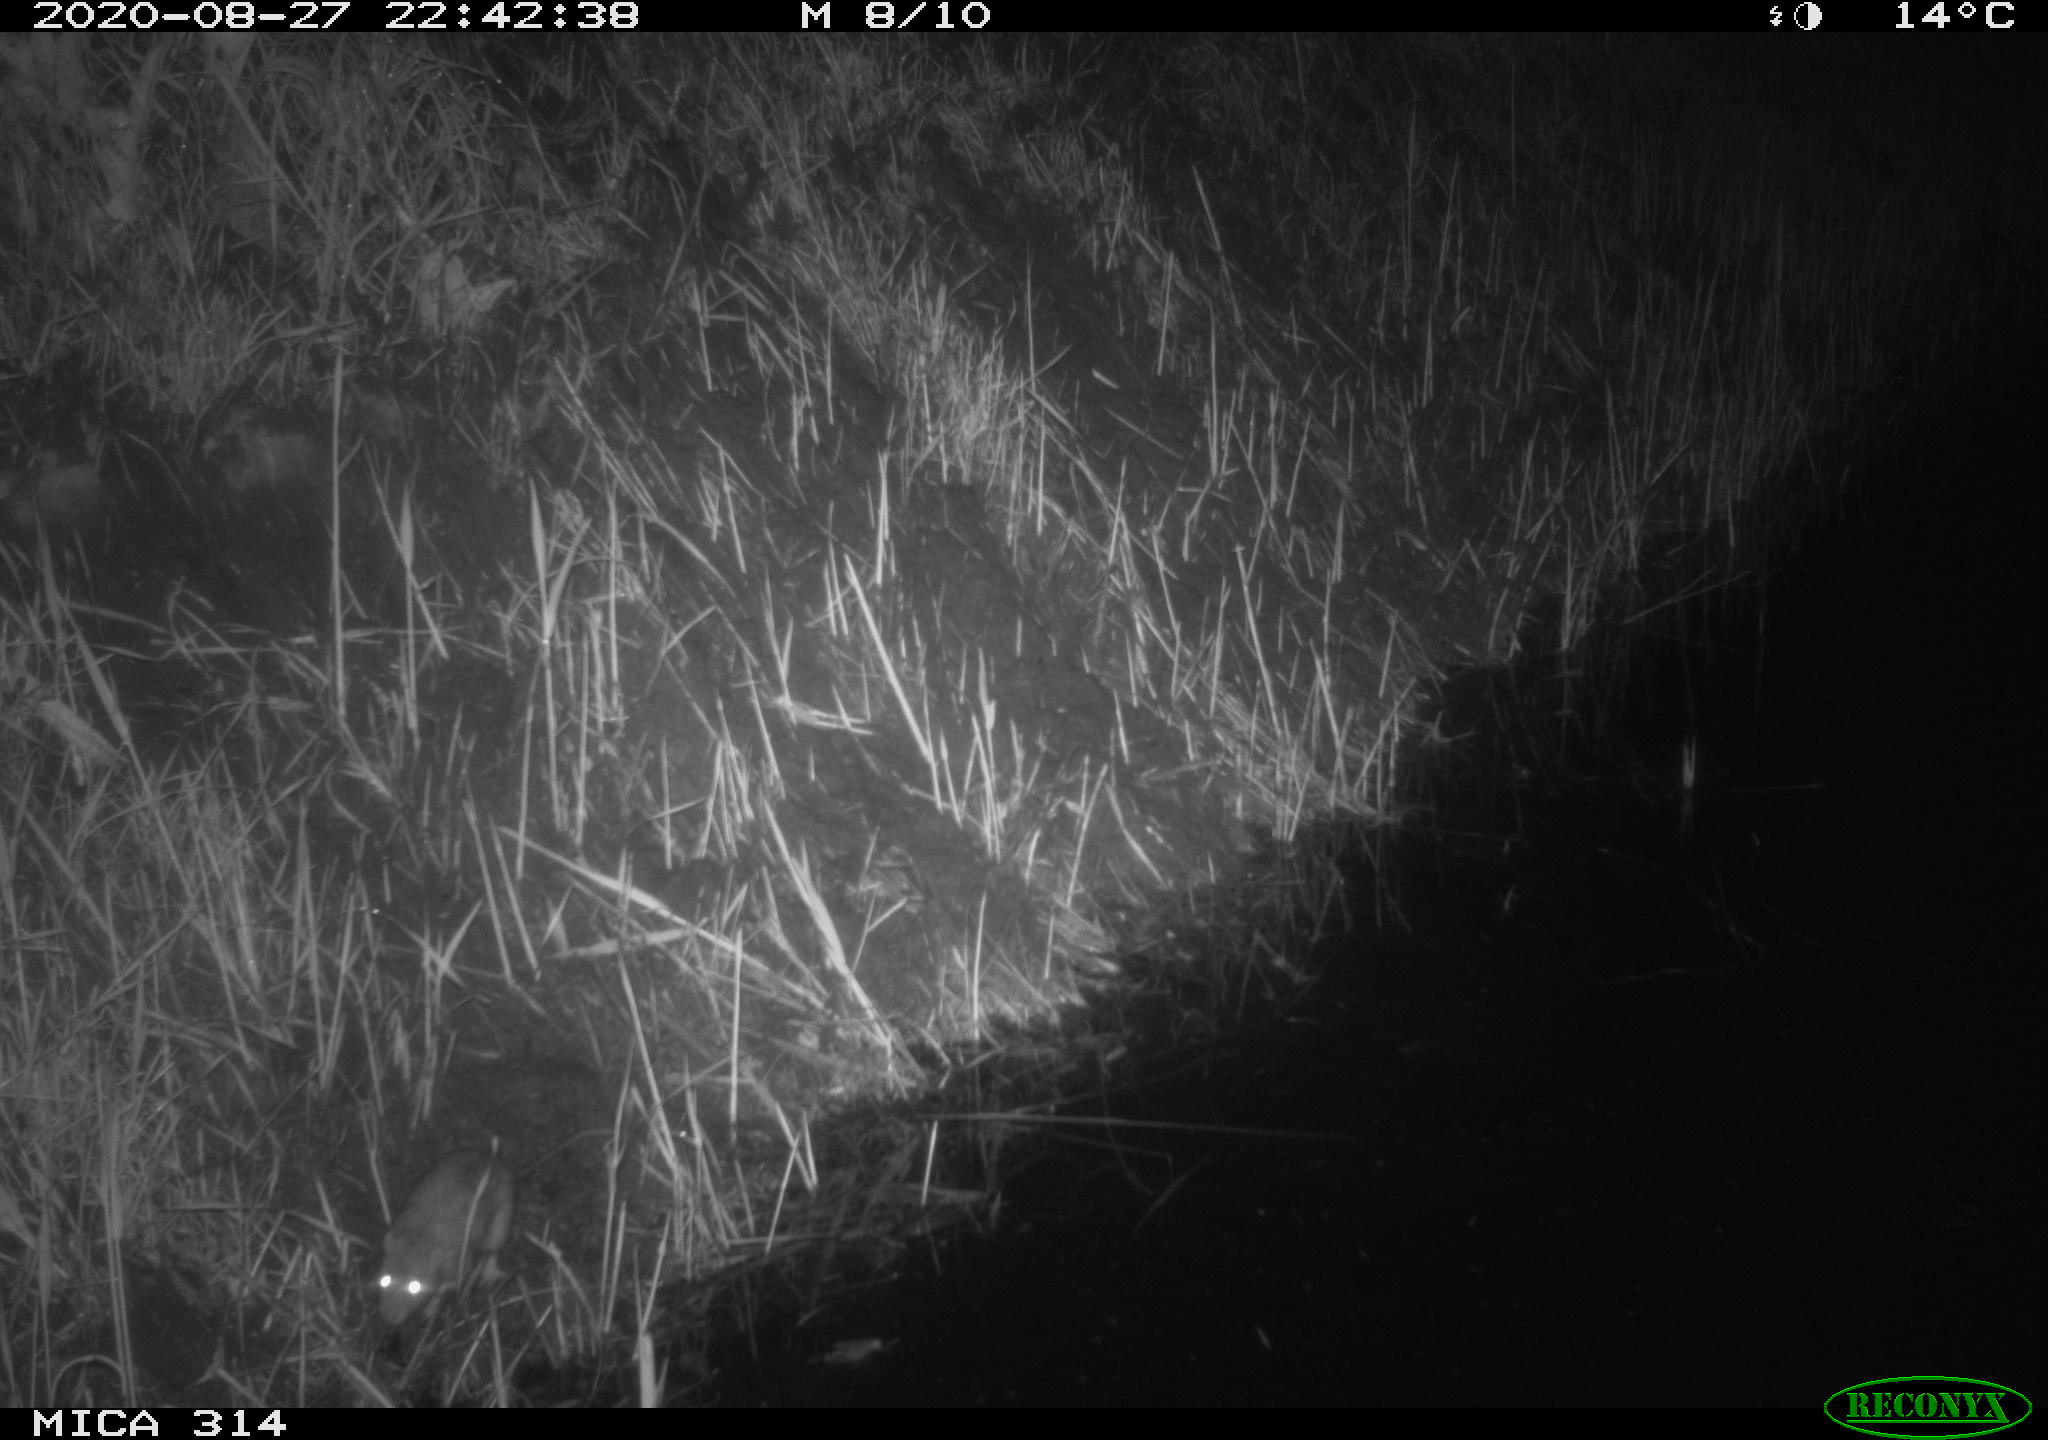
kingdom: Animalia
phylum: Chordata
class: Mammalia
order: Rodentia
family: Muridae
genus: Rattus
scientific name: Rattus norvegicus
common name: Brown rat
